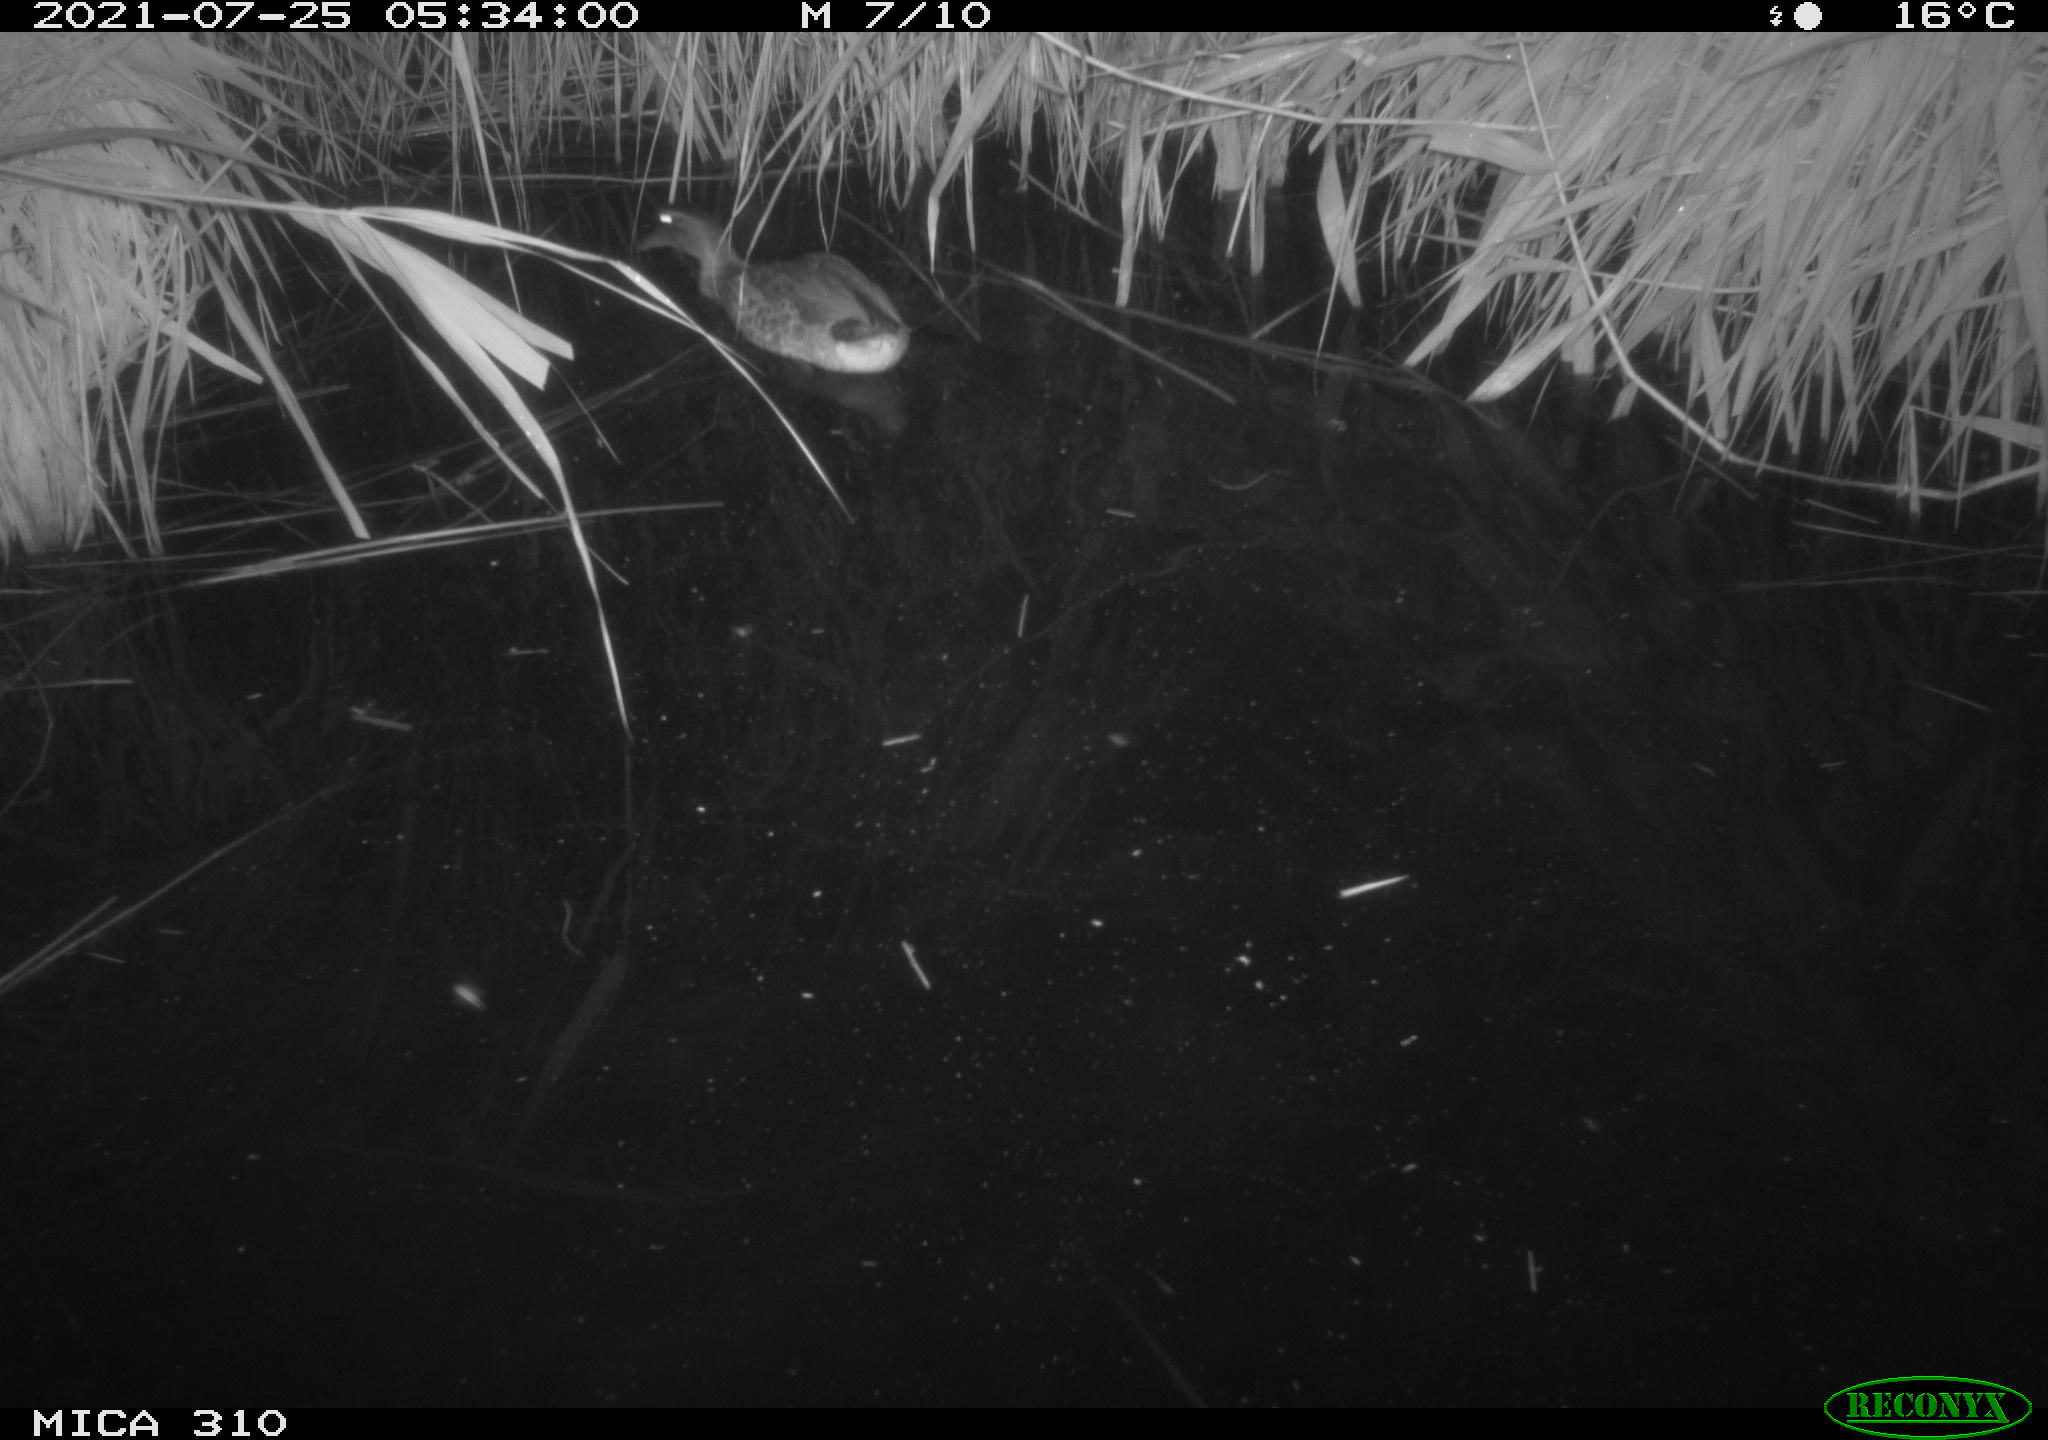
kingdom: Animalia
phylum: Chordata
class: Aves
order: Anseriformes
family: Anatidae
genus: Anas
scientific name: Anas platyrhynchos
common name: Mallard
